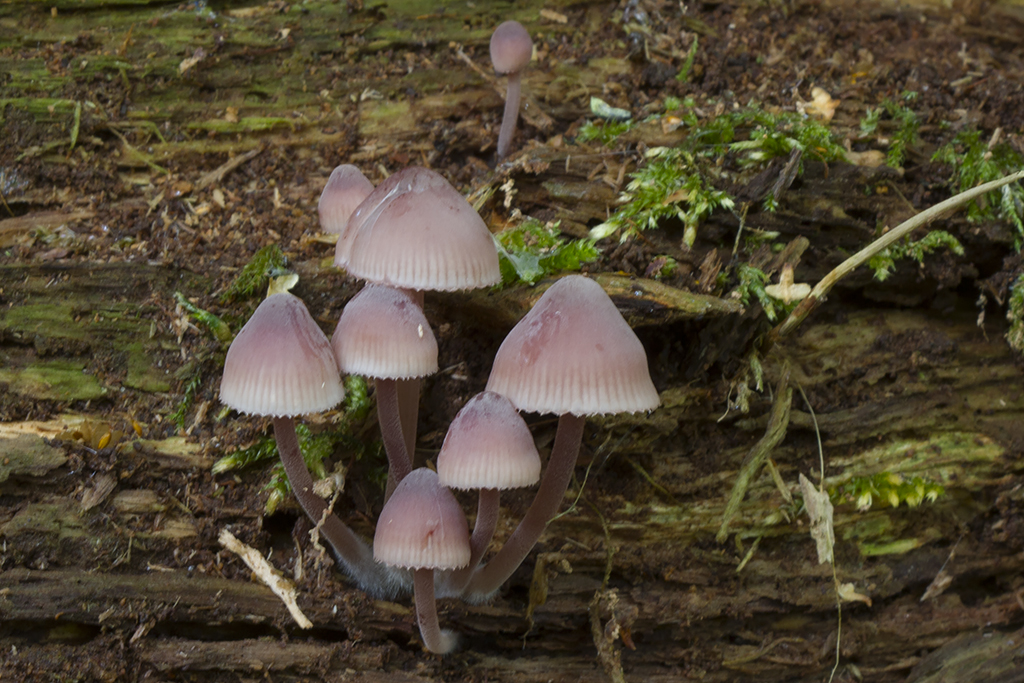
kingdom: Fungi
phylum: Basidiomycota
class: Agaricomycetes
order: Agaricales
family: Mycenaceae
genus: Mycena
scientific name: Mycena haematopus
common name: blødende huesvamp
